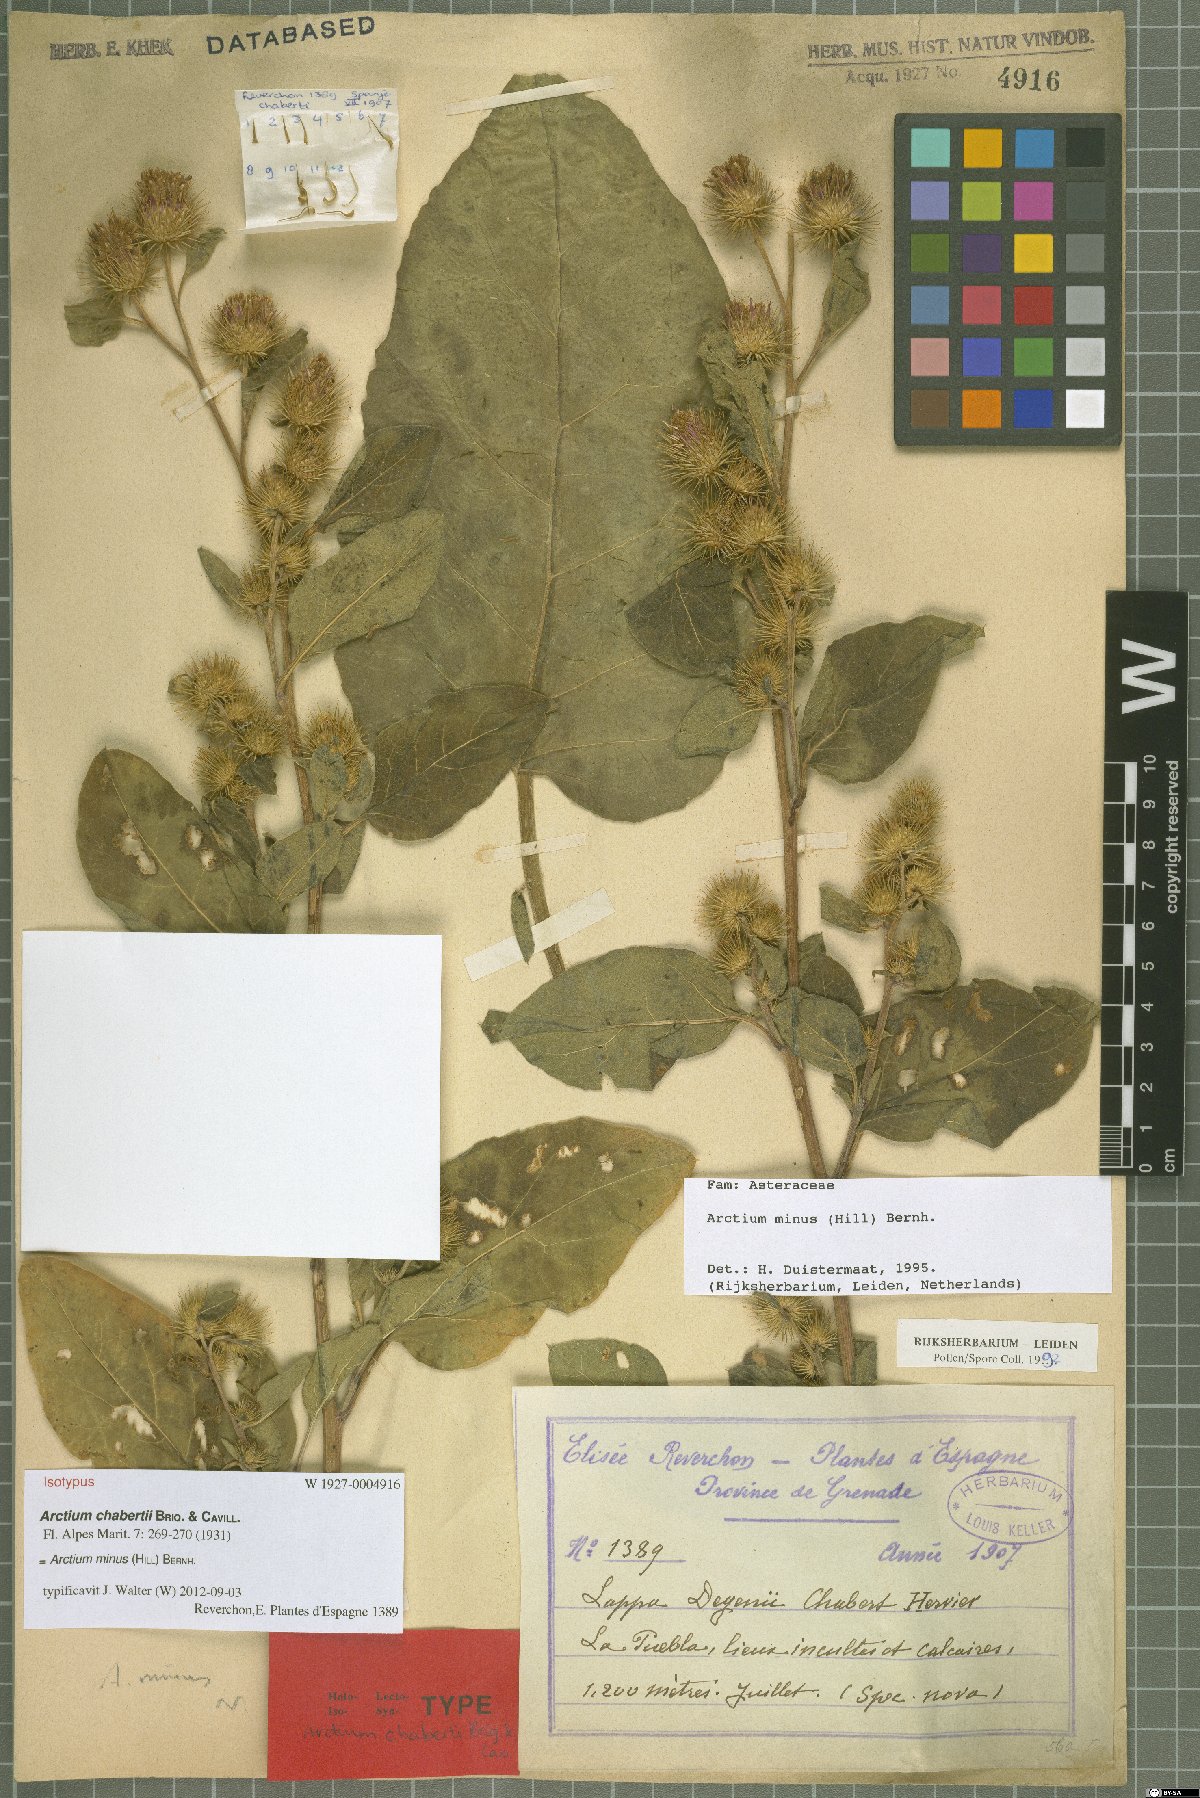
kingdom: Plantae
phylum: Tracheophyta
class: Magnoliopsida
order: Asterales
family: Asteraceae
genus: Arctium
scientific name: Arctium minus
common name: Lesser burdock
